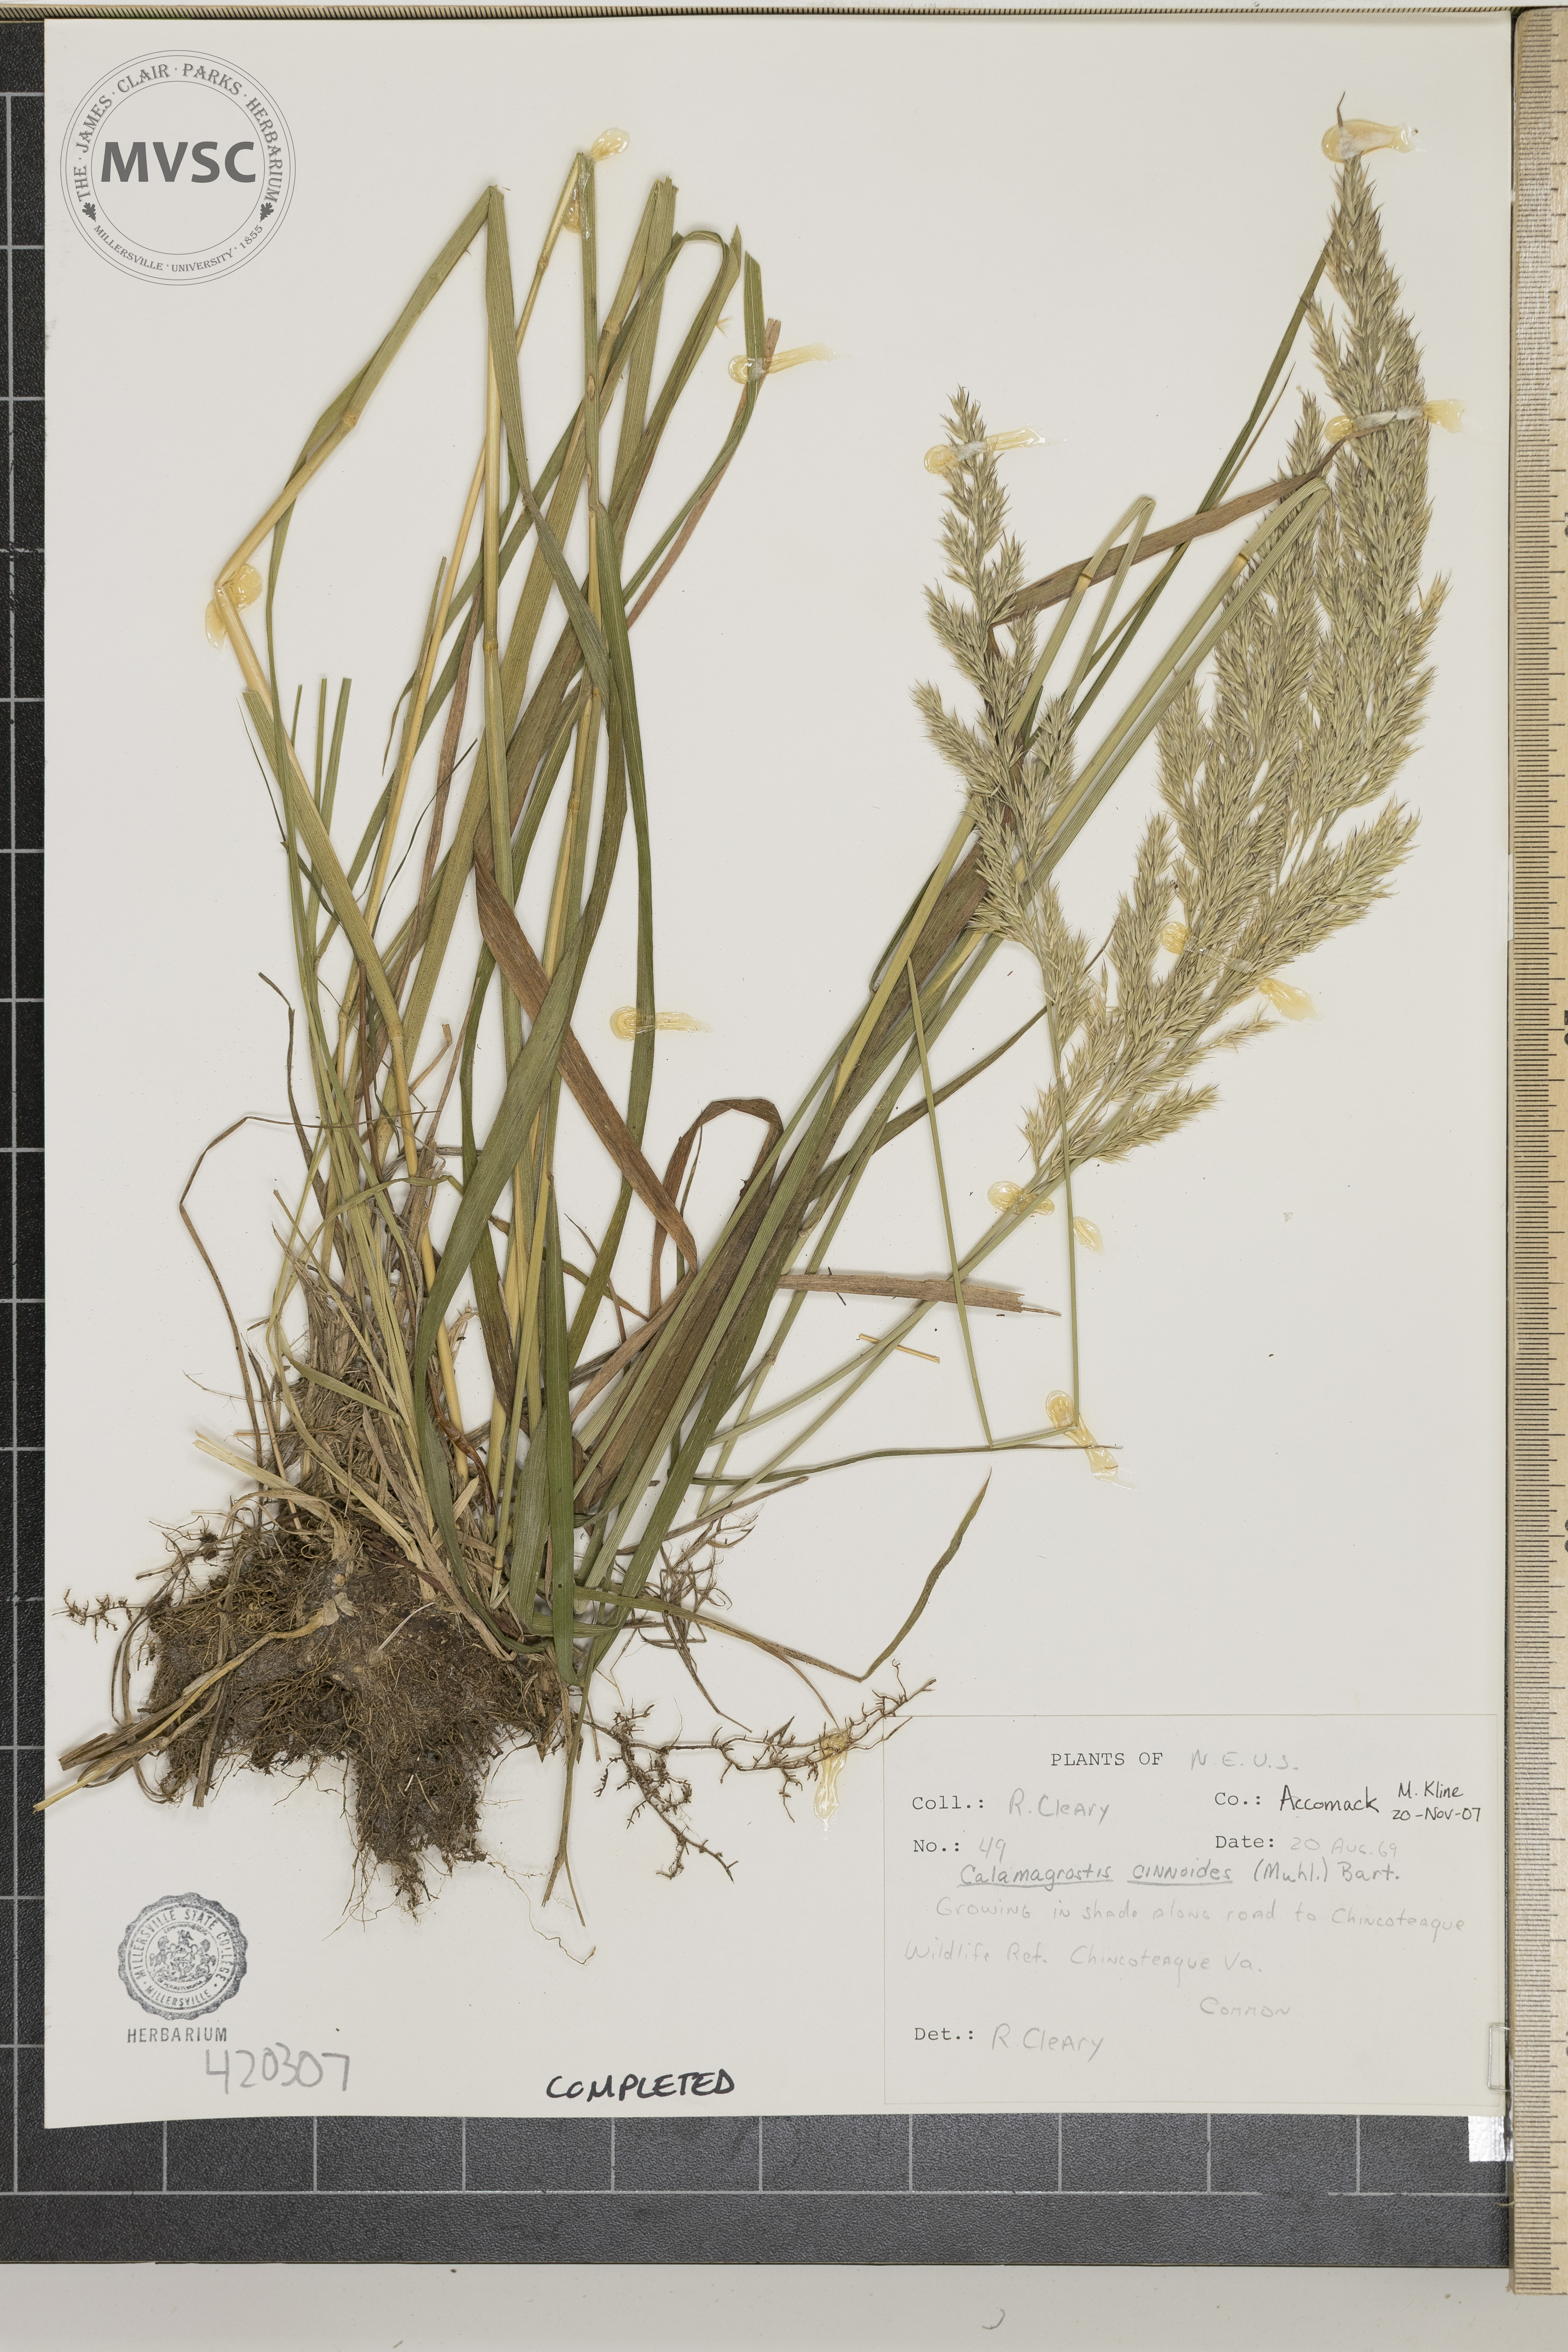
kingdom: Plantae
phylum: Tracheophyta
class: Liliopsida
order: Poales
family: Poaceae
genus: Calamagrostis
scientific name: Calamagrostis canadensis
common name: Reed grass
